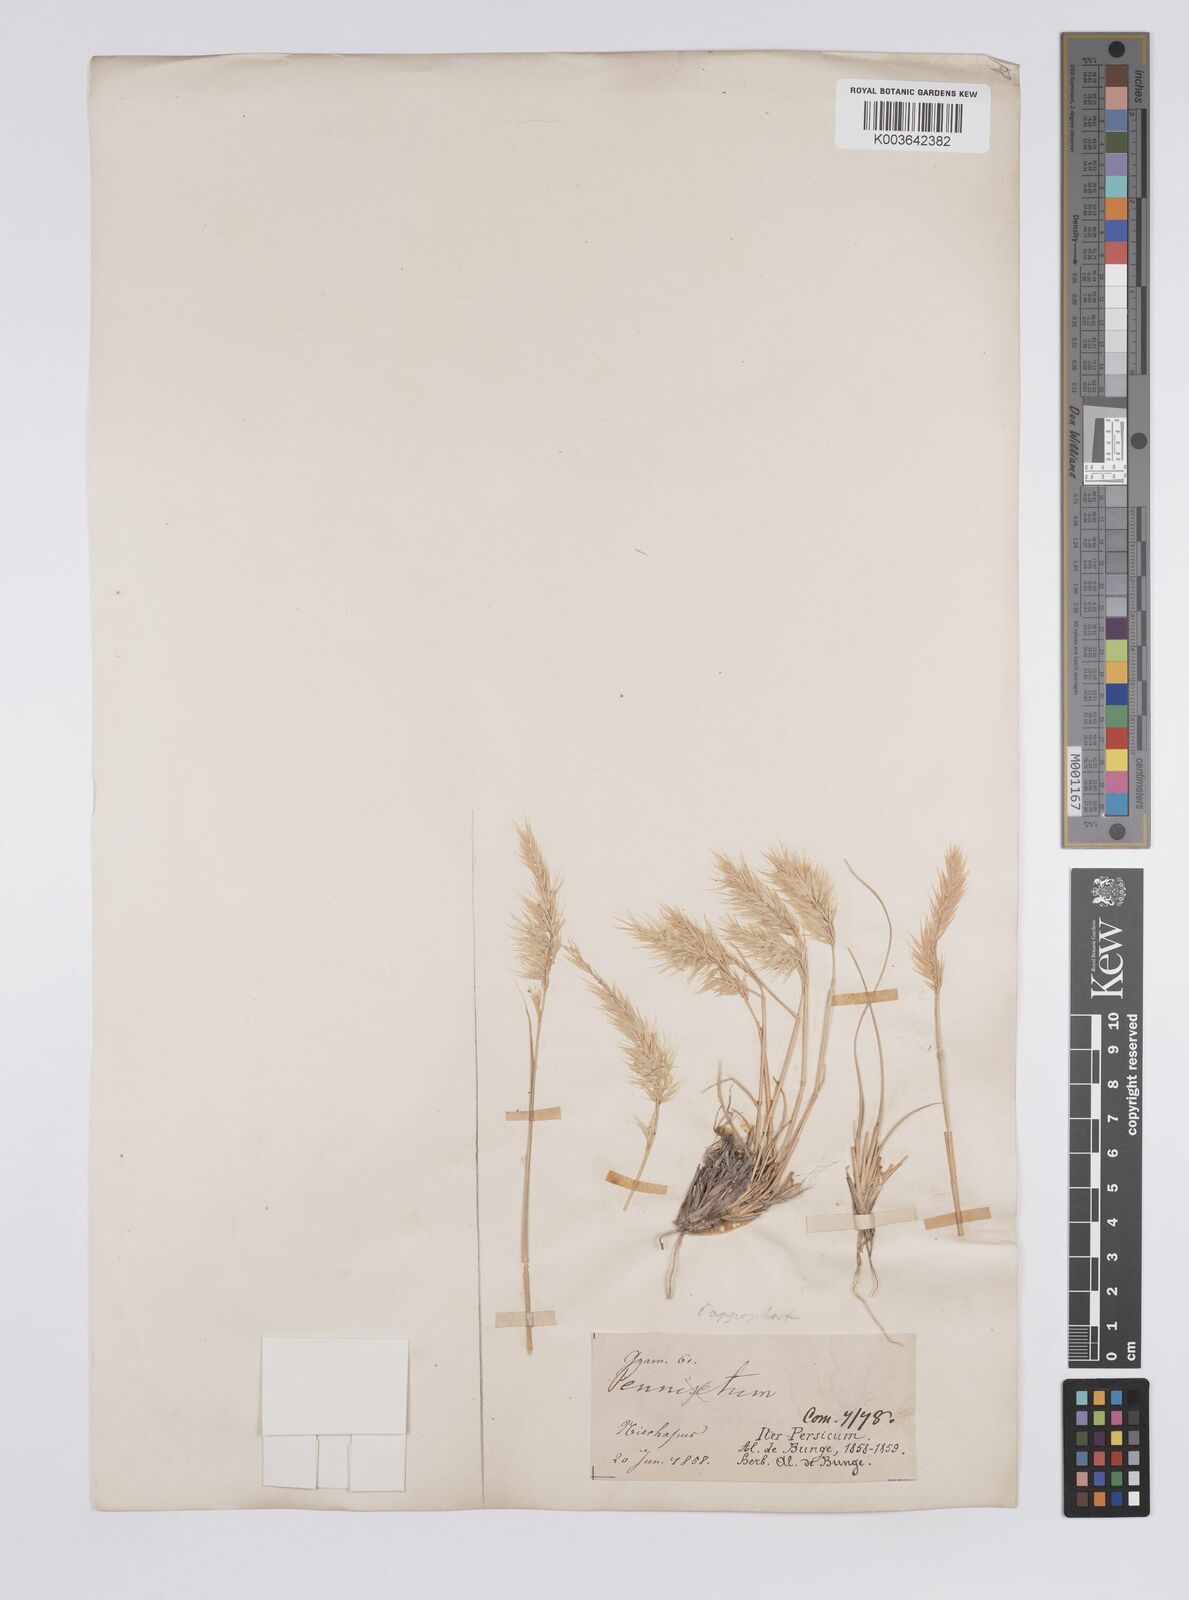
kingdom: Plantae
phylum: Tracheophyta
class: Liliopsida
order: Poales
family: Poaceae
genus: Enneapogon
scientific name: Enneapogon persicus
